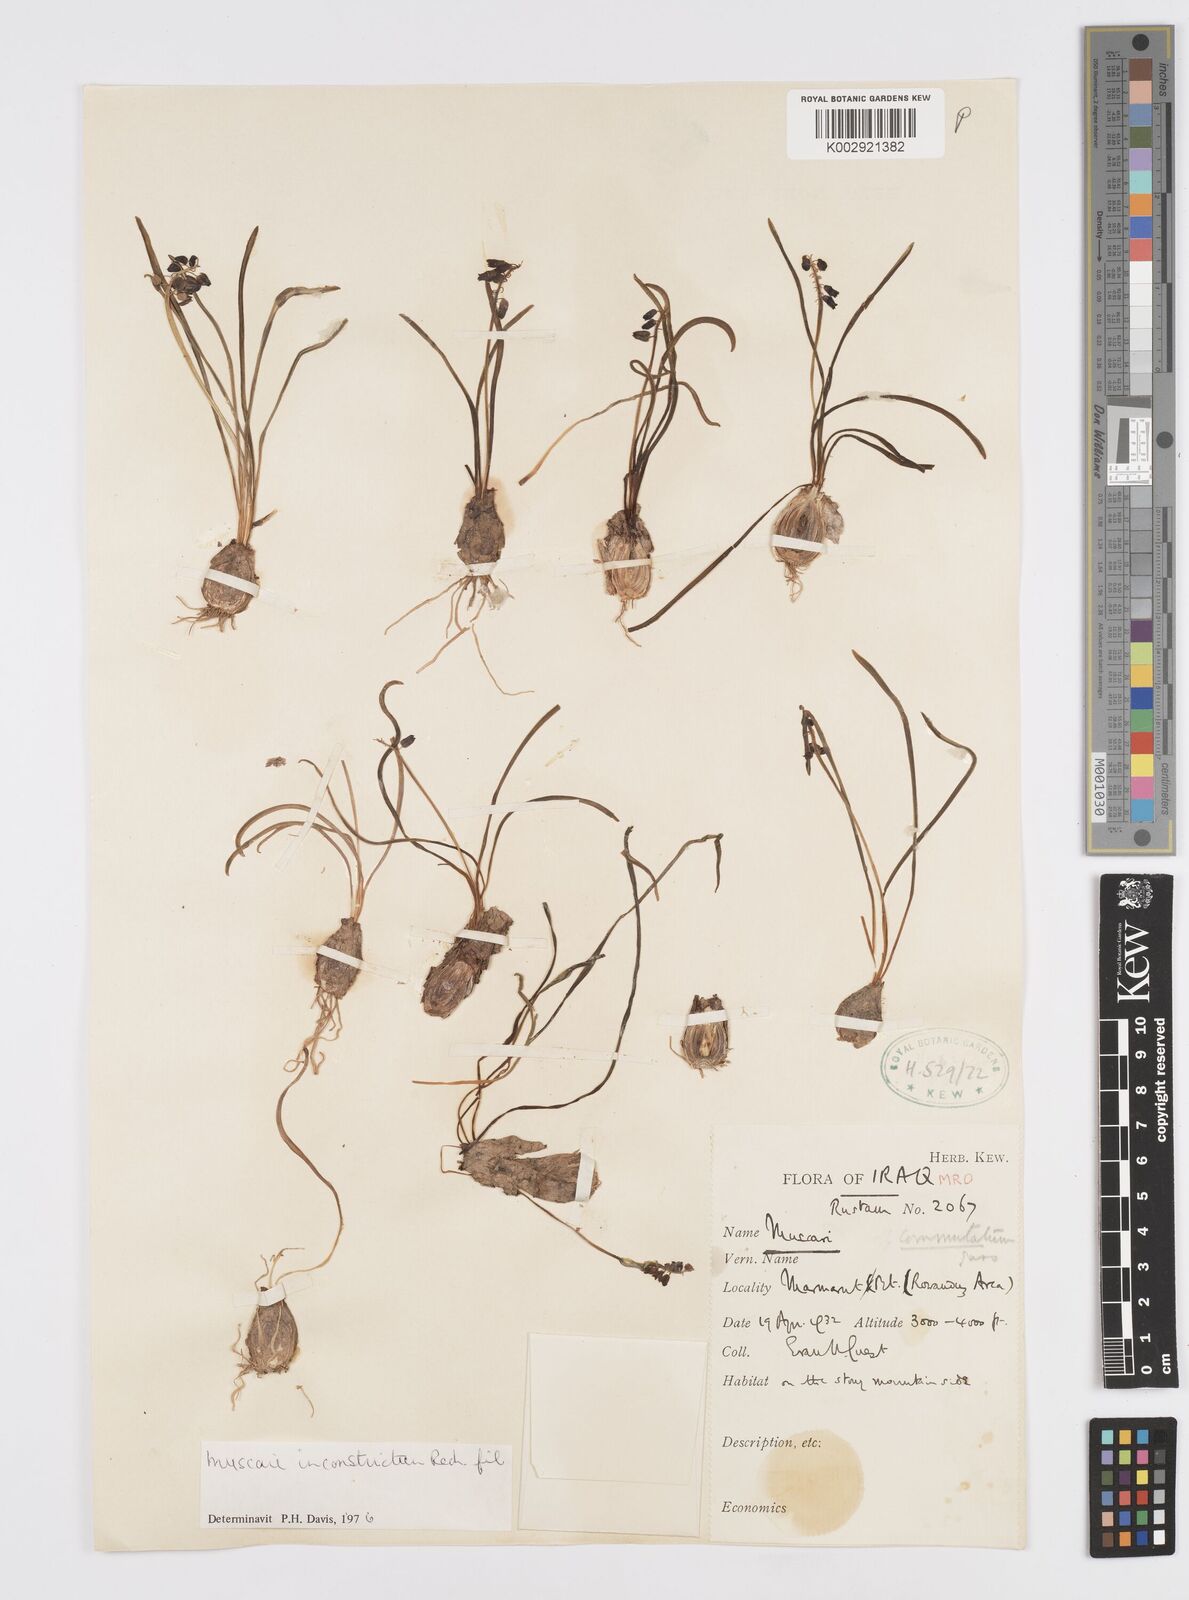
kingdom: Plantae
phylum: Tracheophyta
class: Liliopsida
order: Asparagales
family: Asparagaceae
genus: Muscari
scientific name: Muscari inconstrictum
